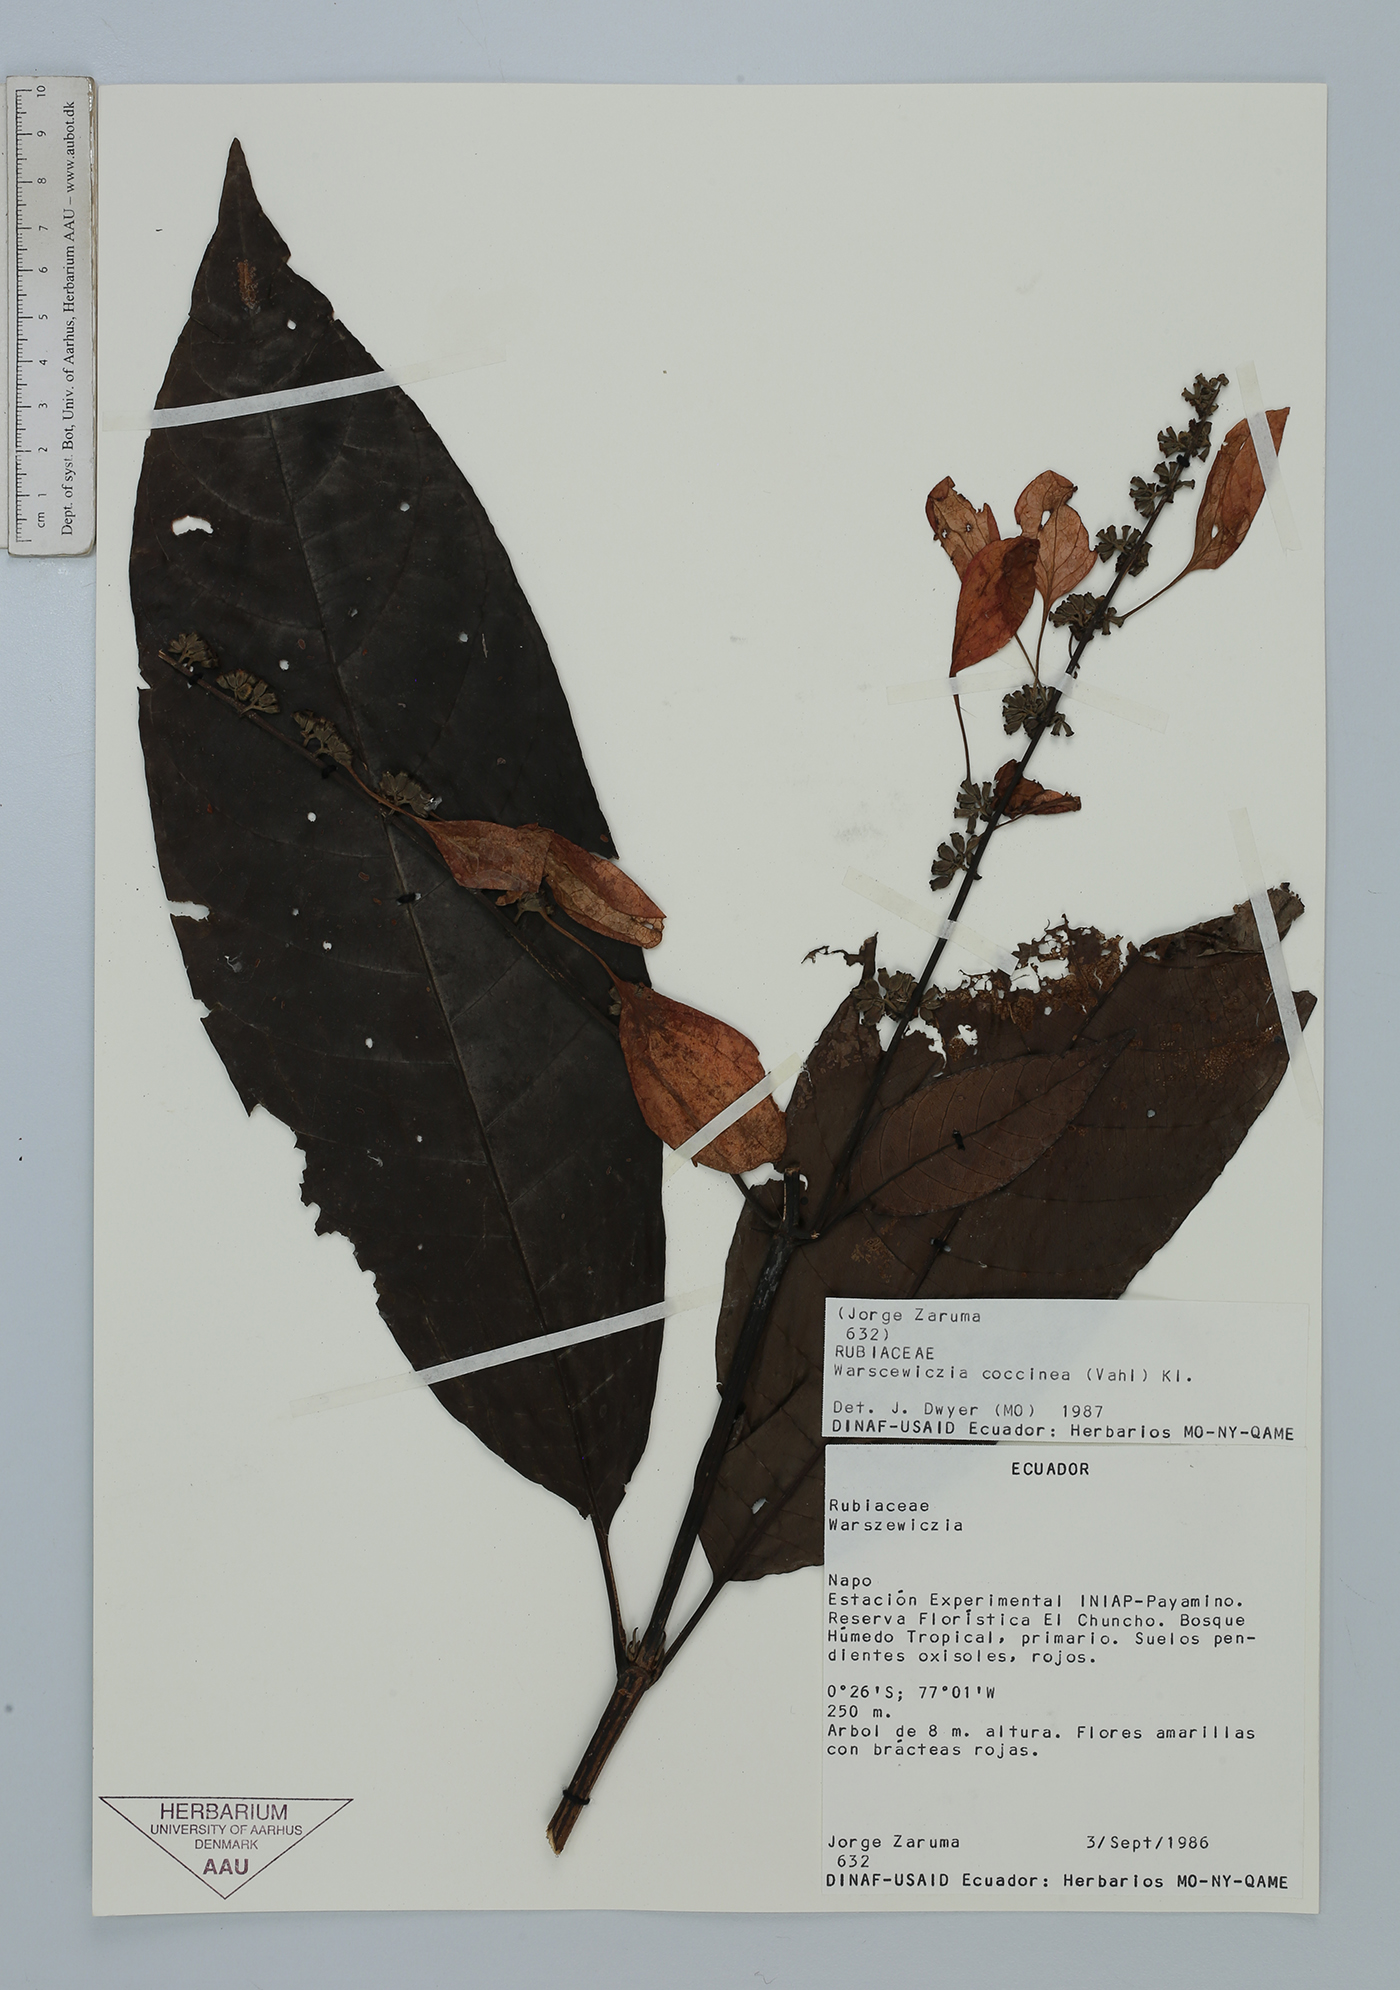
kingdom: Plantae
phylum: Tracheophyta
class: Magnoliopsida
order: Gentianales
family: Rubiaceae
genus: Warszewiczia
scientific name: Warszewiczia coccinea
